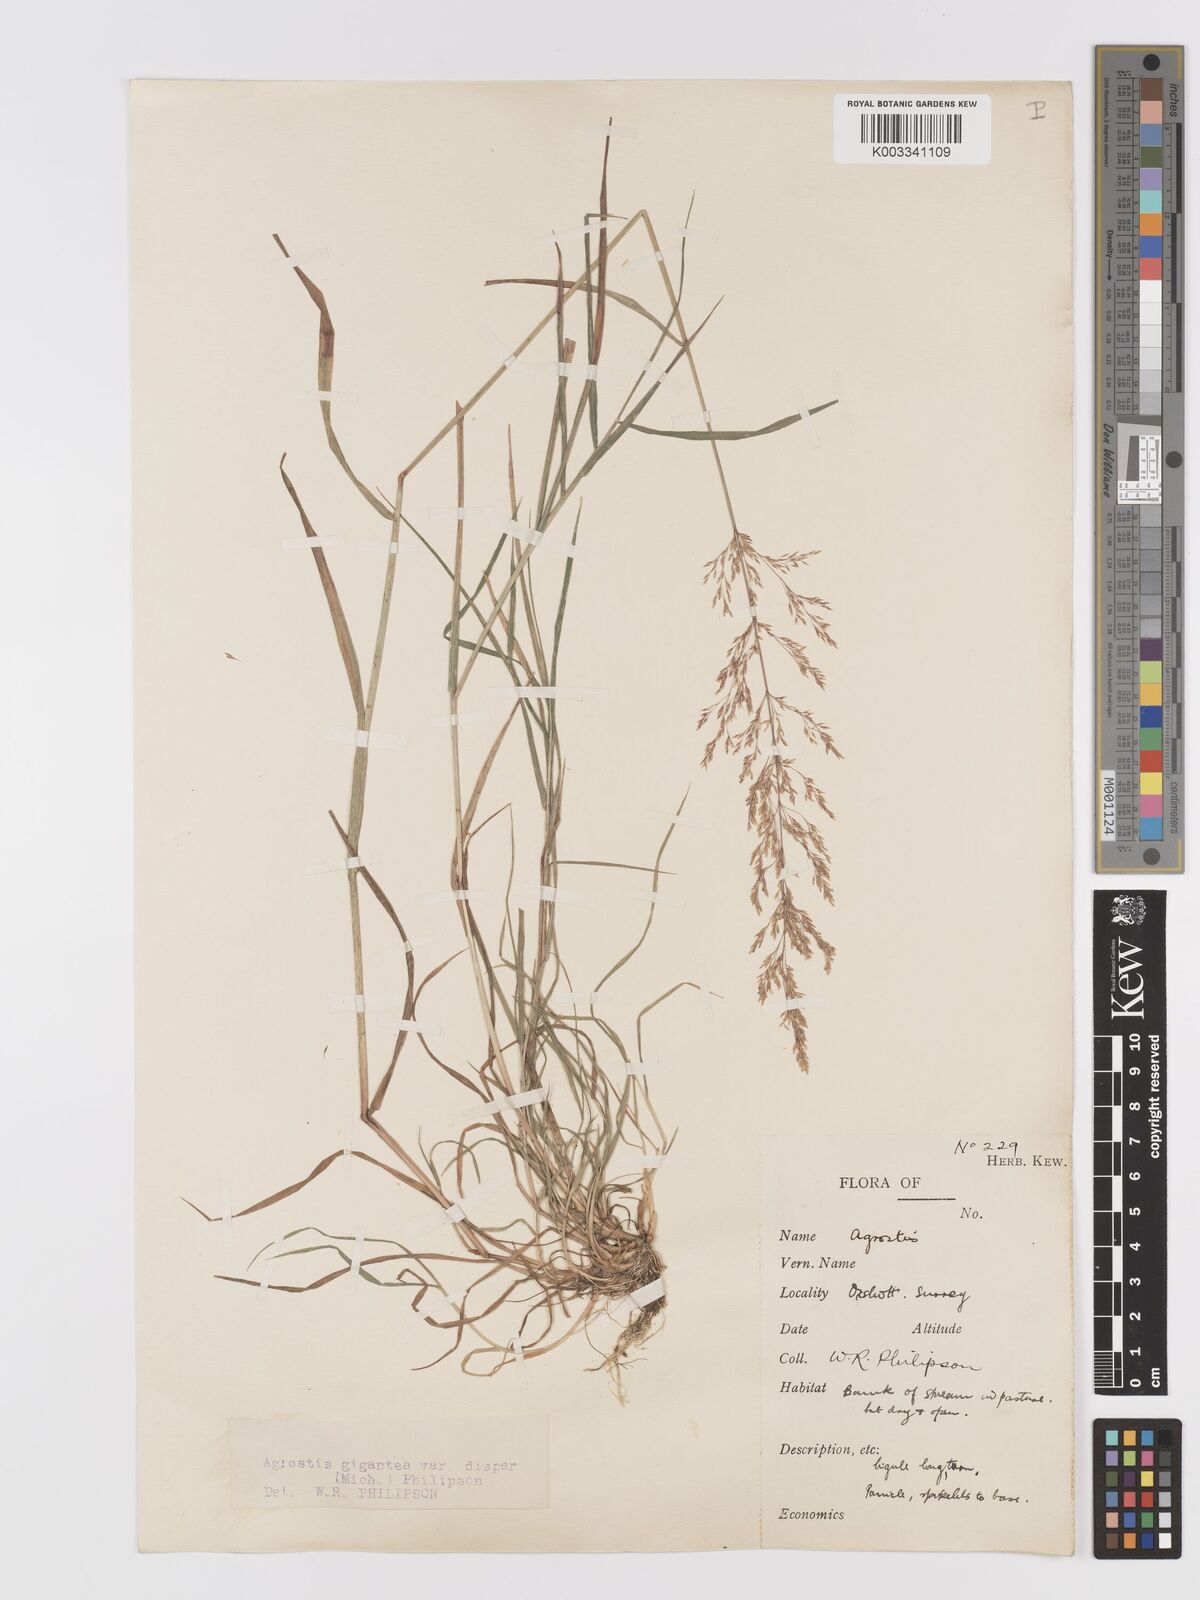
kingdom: Plantae
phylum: Tracheophyta
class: Liliopsida
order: Poales
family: Poaceae
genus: Agrostis
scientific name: Agrostis gigantea
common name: Black bent
